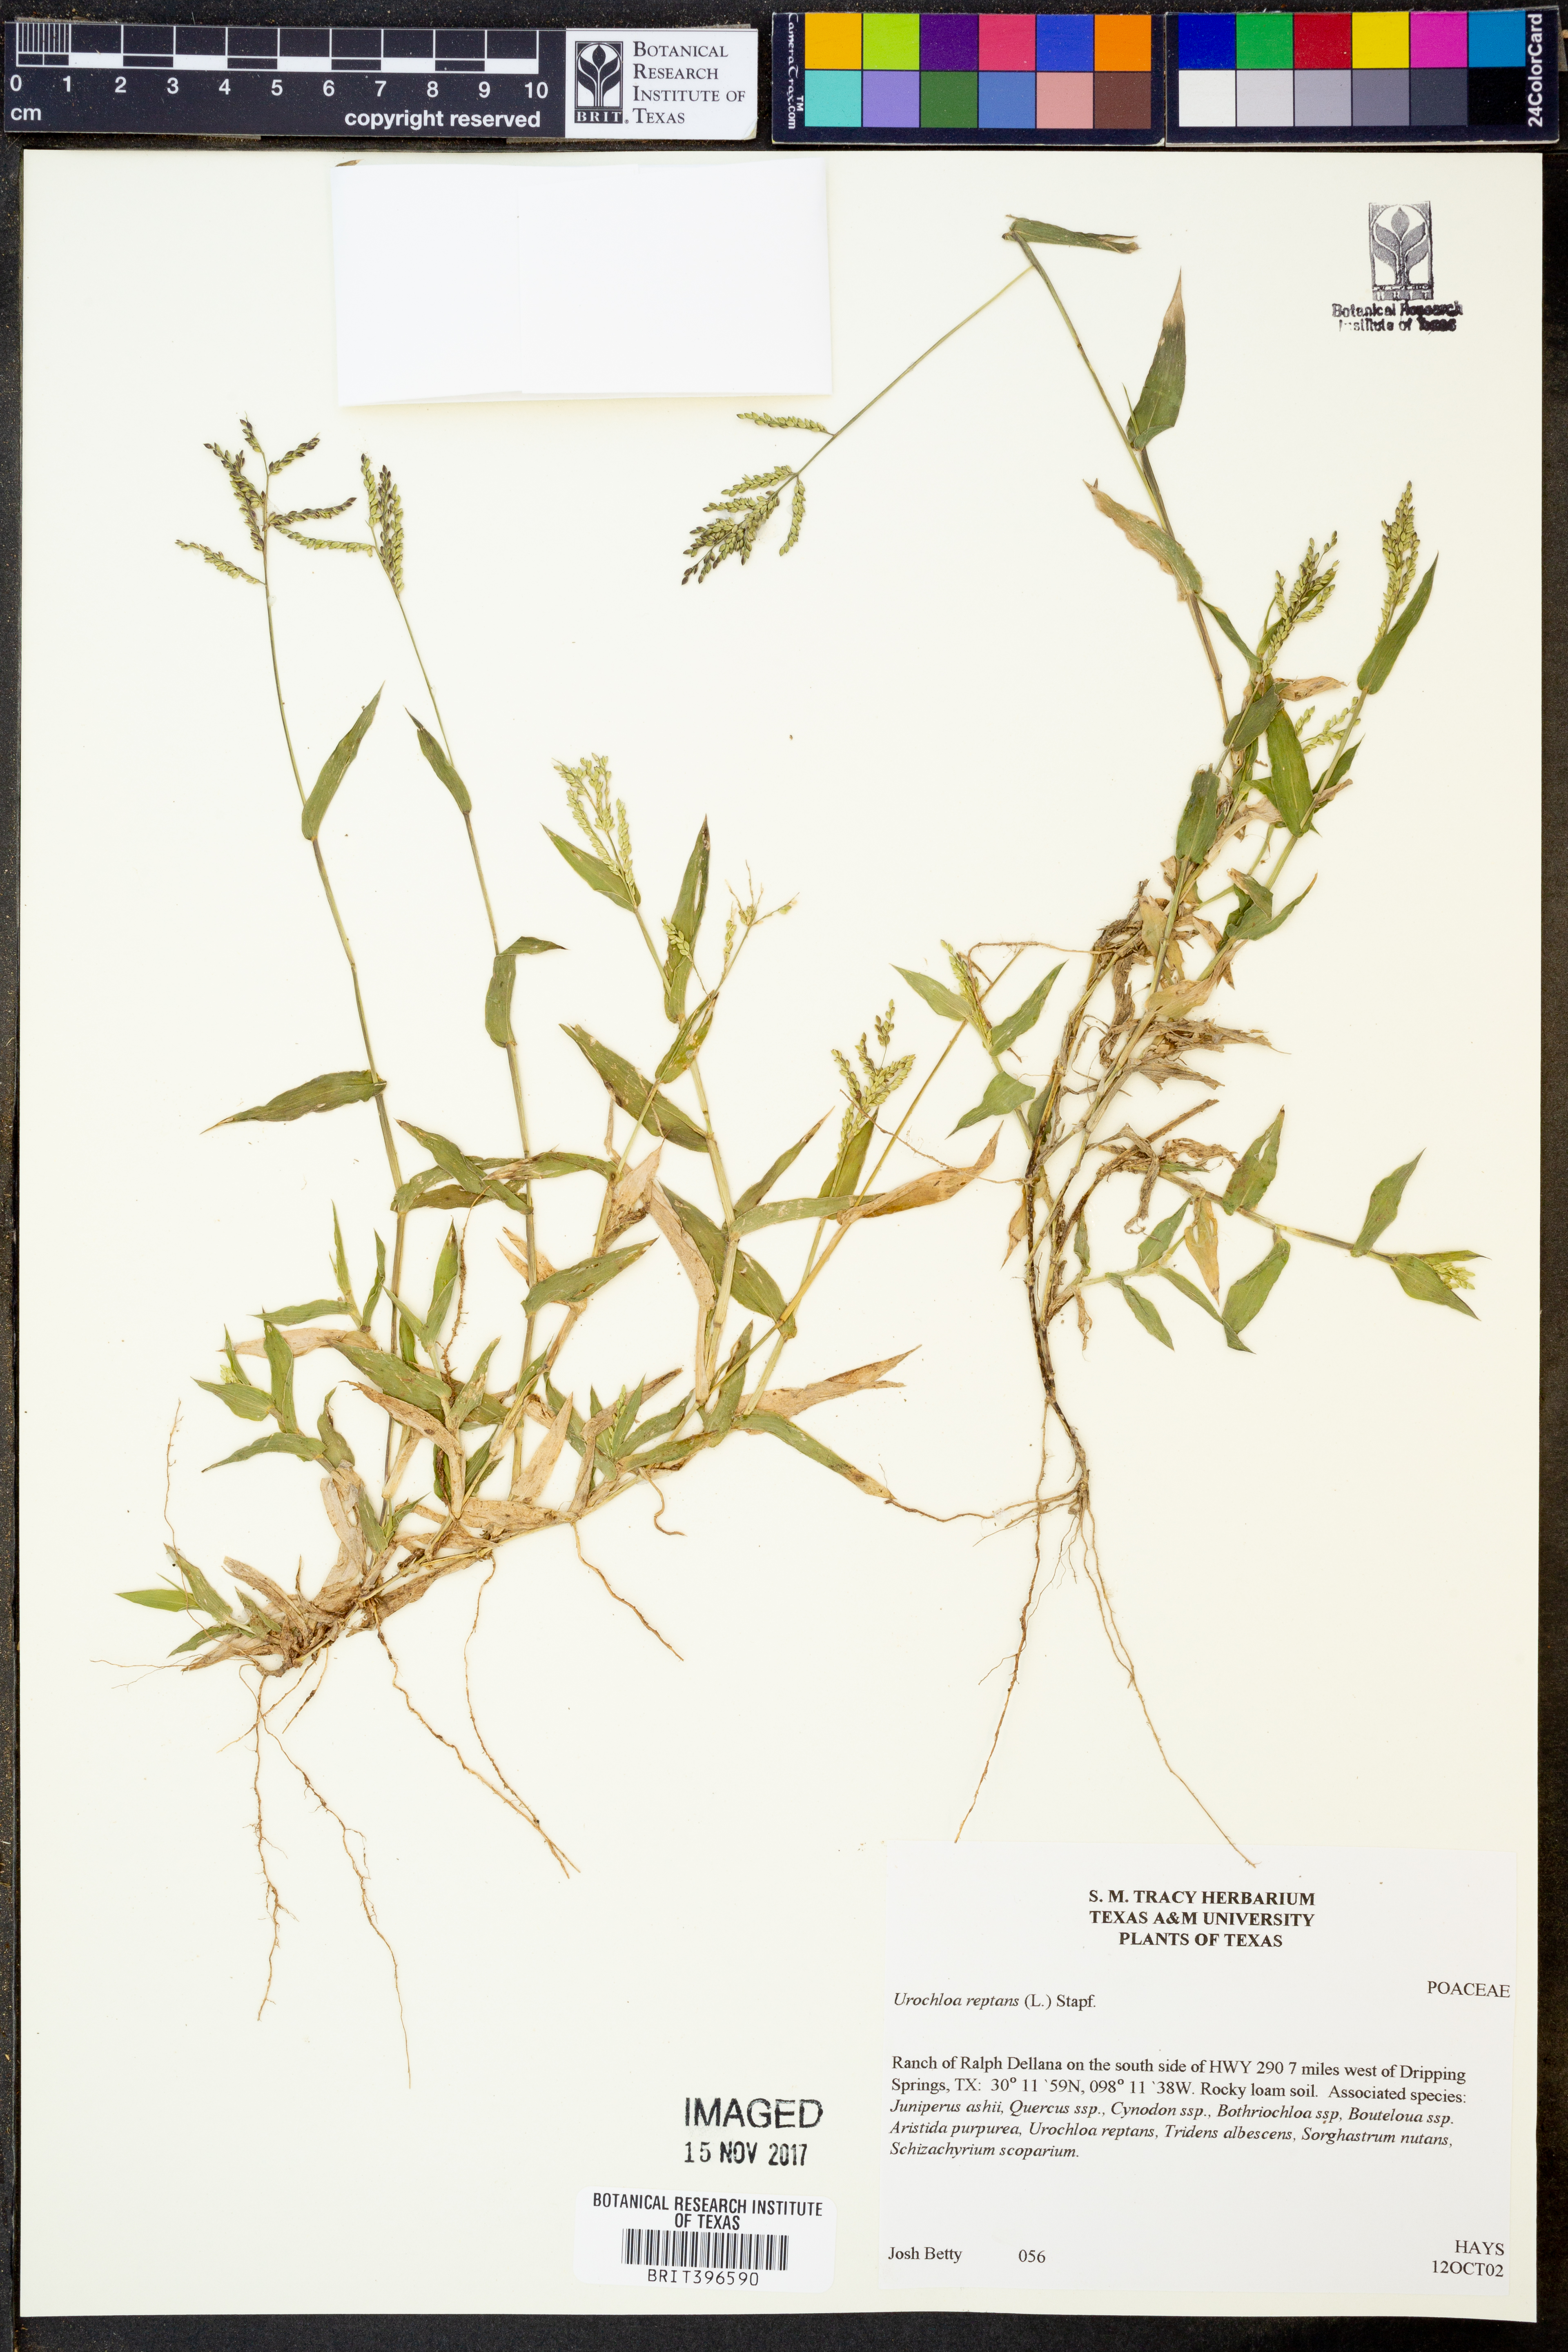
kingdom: Plantae
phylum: Tracheophyta
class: Liliopsida
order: Poales
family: Poaceae
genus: Urochloa
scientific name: Urochloa reptans
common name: Sprawling signalgrass
